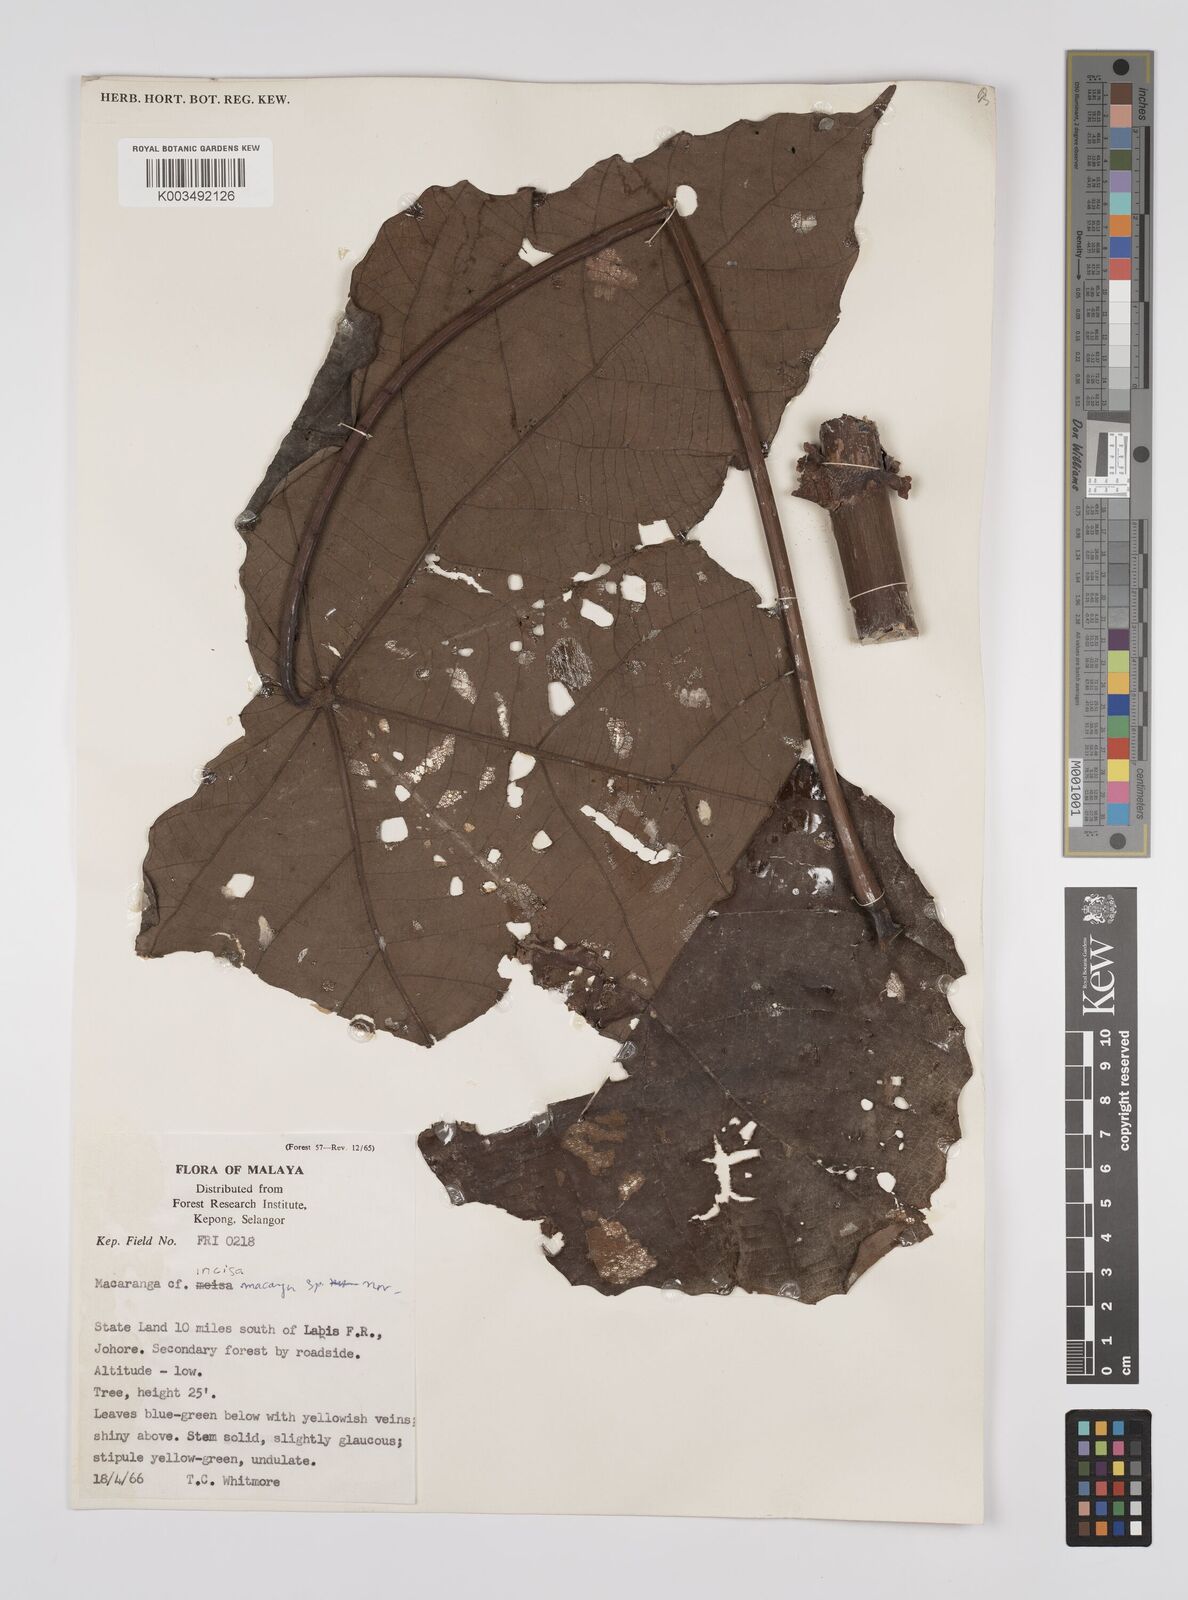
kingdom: Plantae
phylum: Tracheophyta
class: Magnoliopsida
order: Malpighiales
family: Euphorbiaceae
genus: Macaranga
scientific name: Macaranga gigantea
